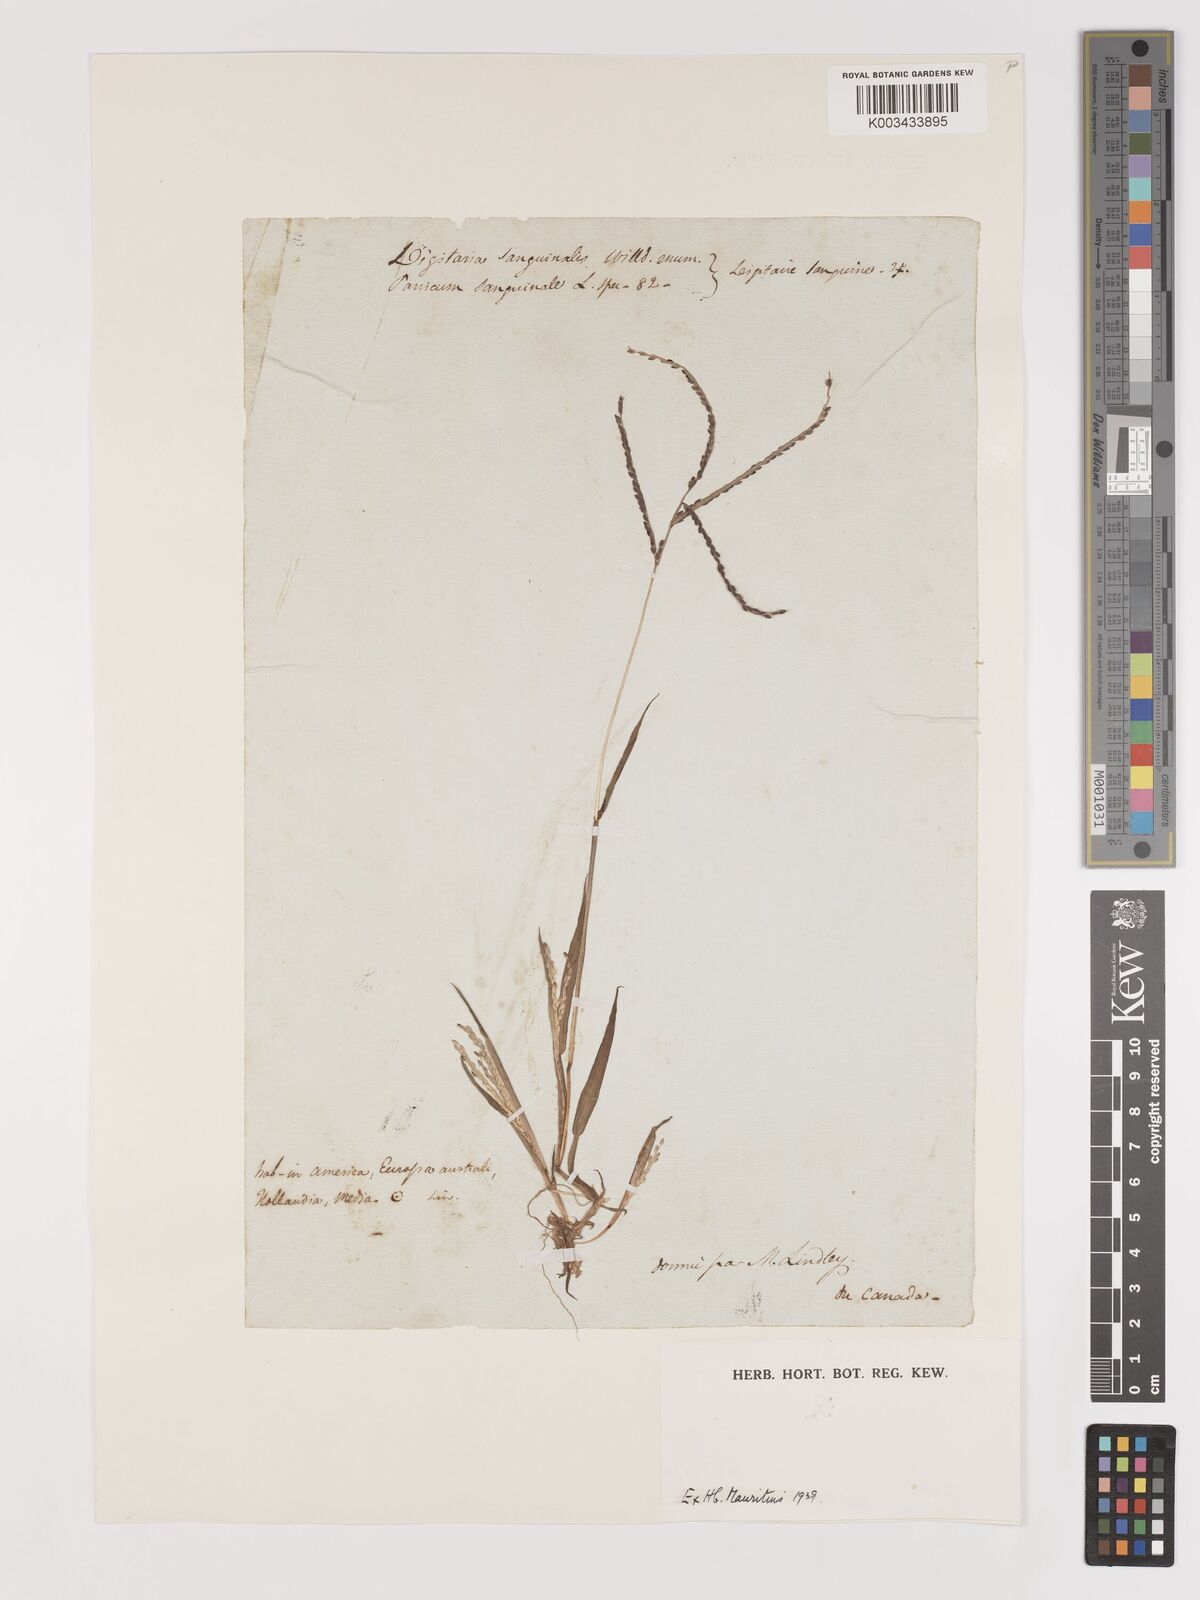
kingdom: Plantae
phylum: Tracheophyta
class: Liliopsida
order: Poales
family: Poaceae
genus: Digitaria
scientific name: Digitaria ischaemum
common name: Smooth crabgrass
